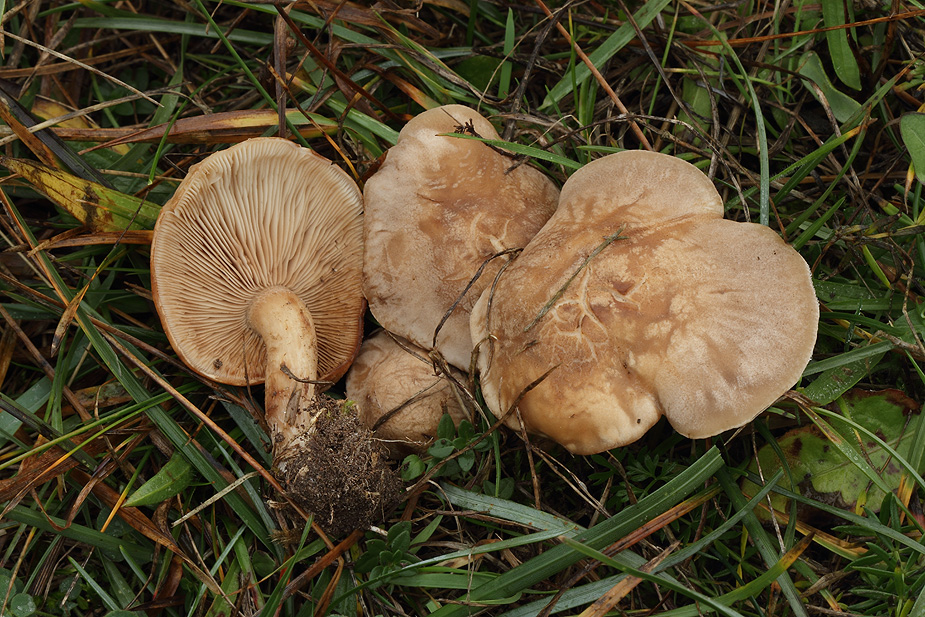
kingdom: Fungi
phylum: Basidiomycota
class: Agaricomycetes
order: Agaricales
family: Tricholomataceae
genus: Lepista
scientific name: Lepista panaeolus
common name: marmoreret hekseringshat
